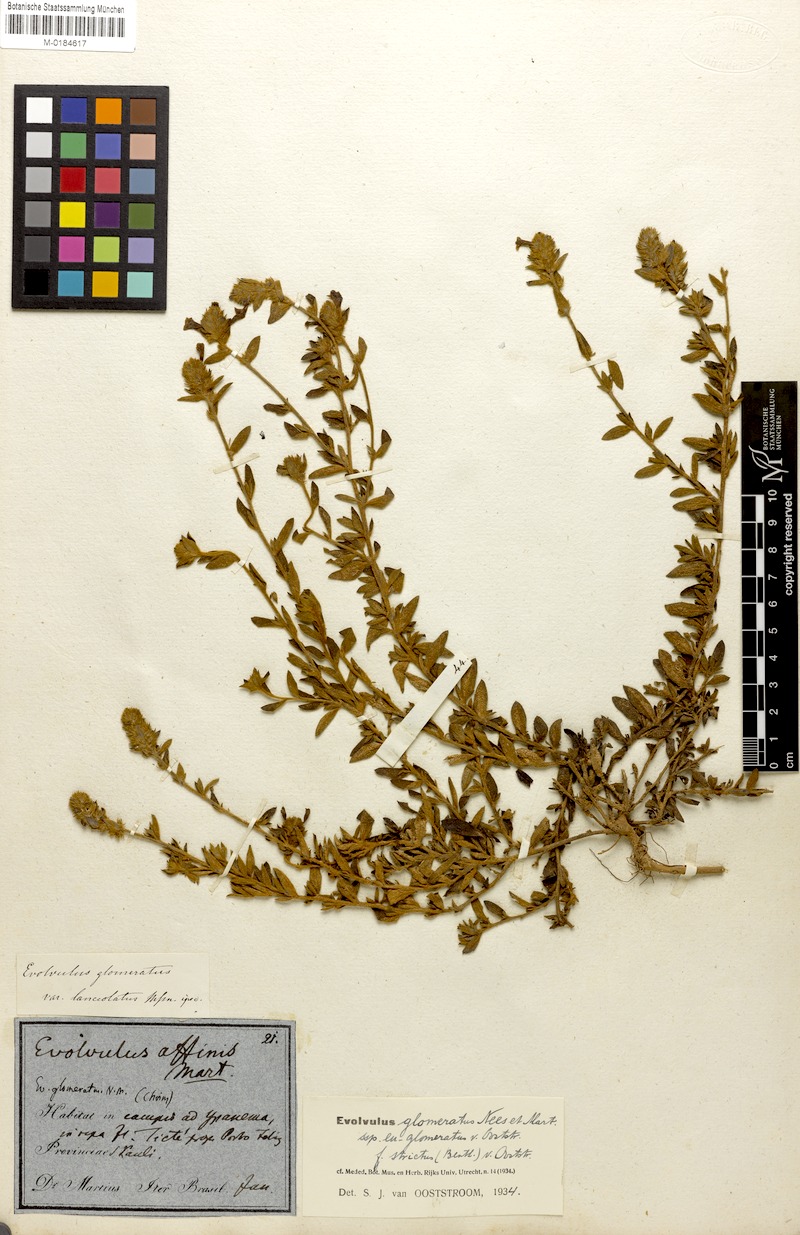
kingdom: Plantae
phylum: Tracheophyta
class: Magnoliopsida
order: Solanales
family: Convolvulaceae
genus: Evolvulus
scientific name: Evolvulus glomeratus
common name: Brazilian dwarf morning-glory
